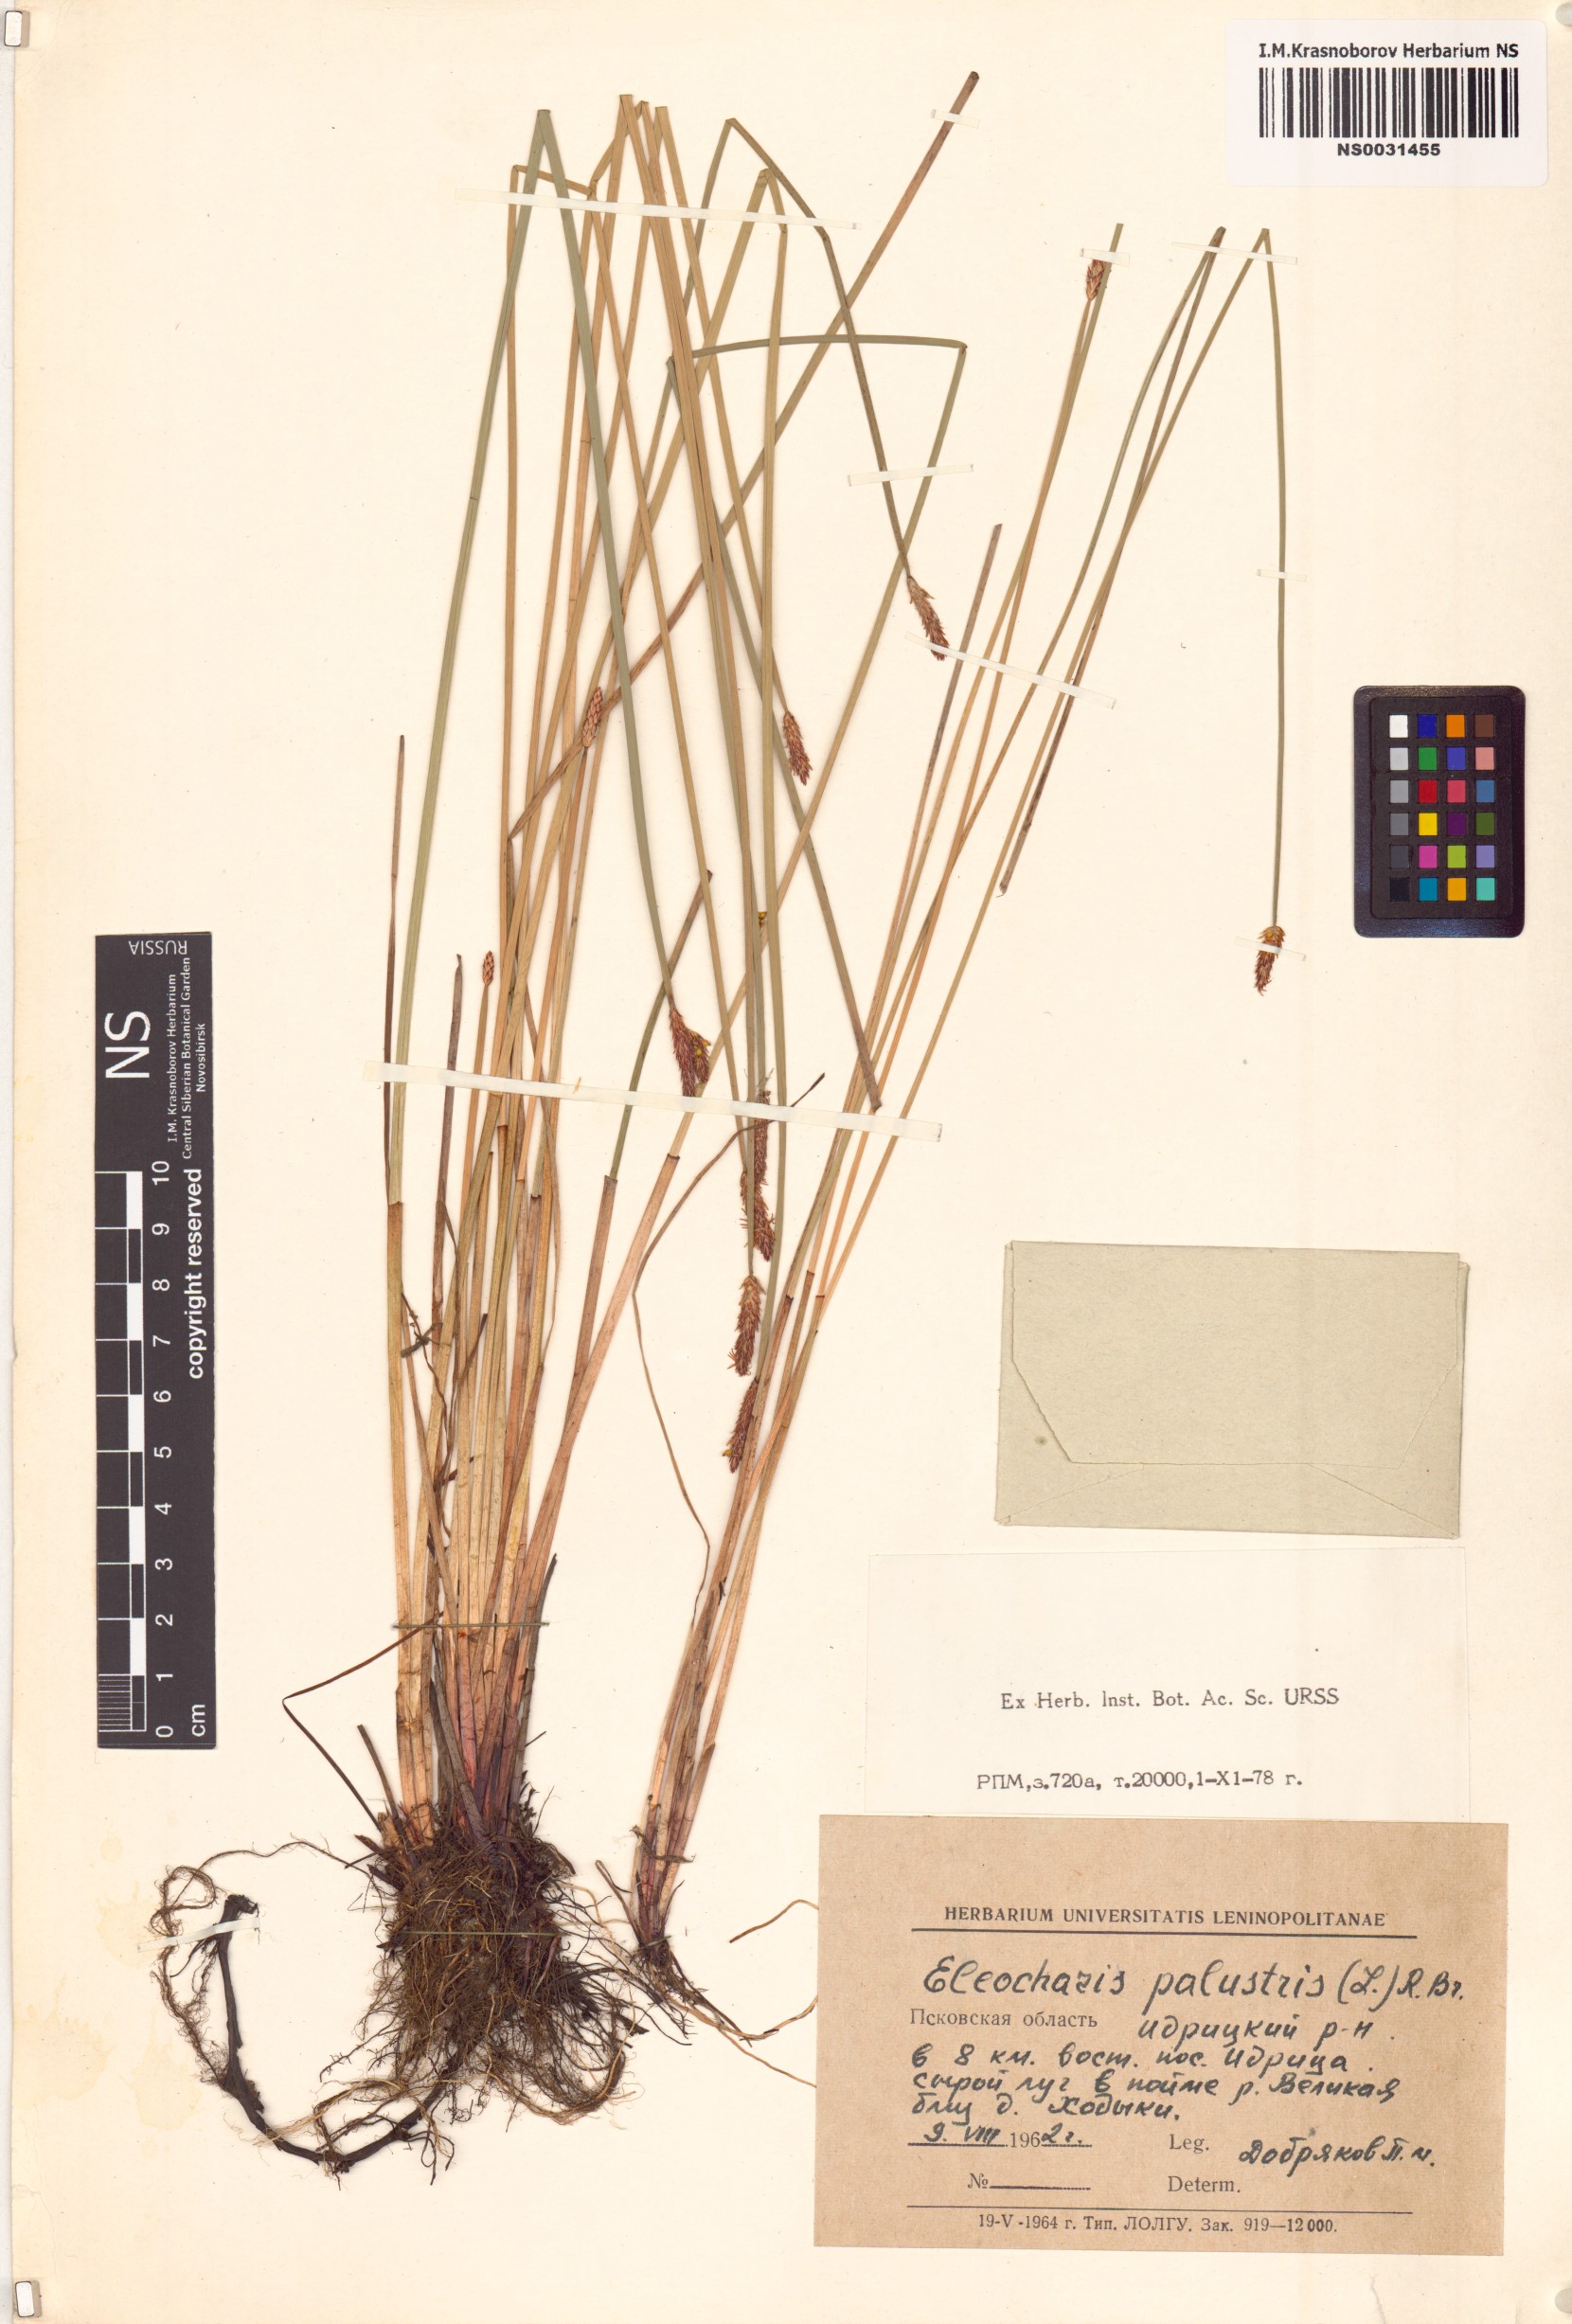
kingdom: Plantae
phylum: Tracheophyta
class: Liliopsida
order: Poales
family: Cyperaceae
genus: Eleocharis
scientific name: Eleocharis palustris
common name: Common spike-rush
